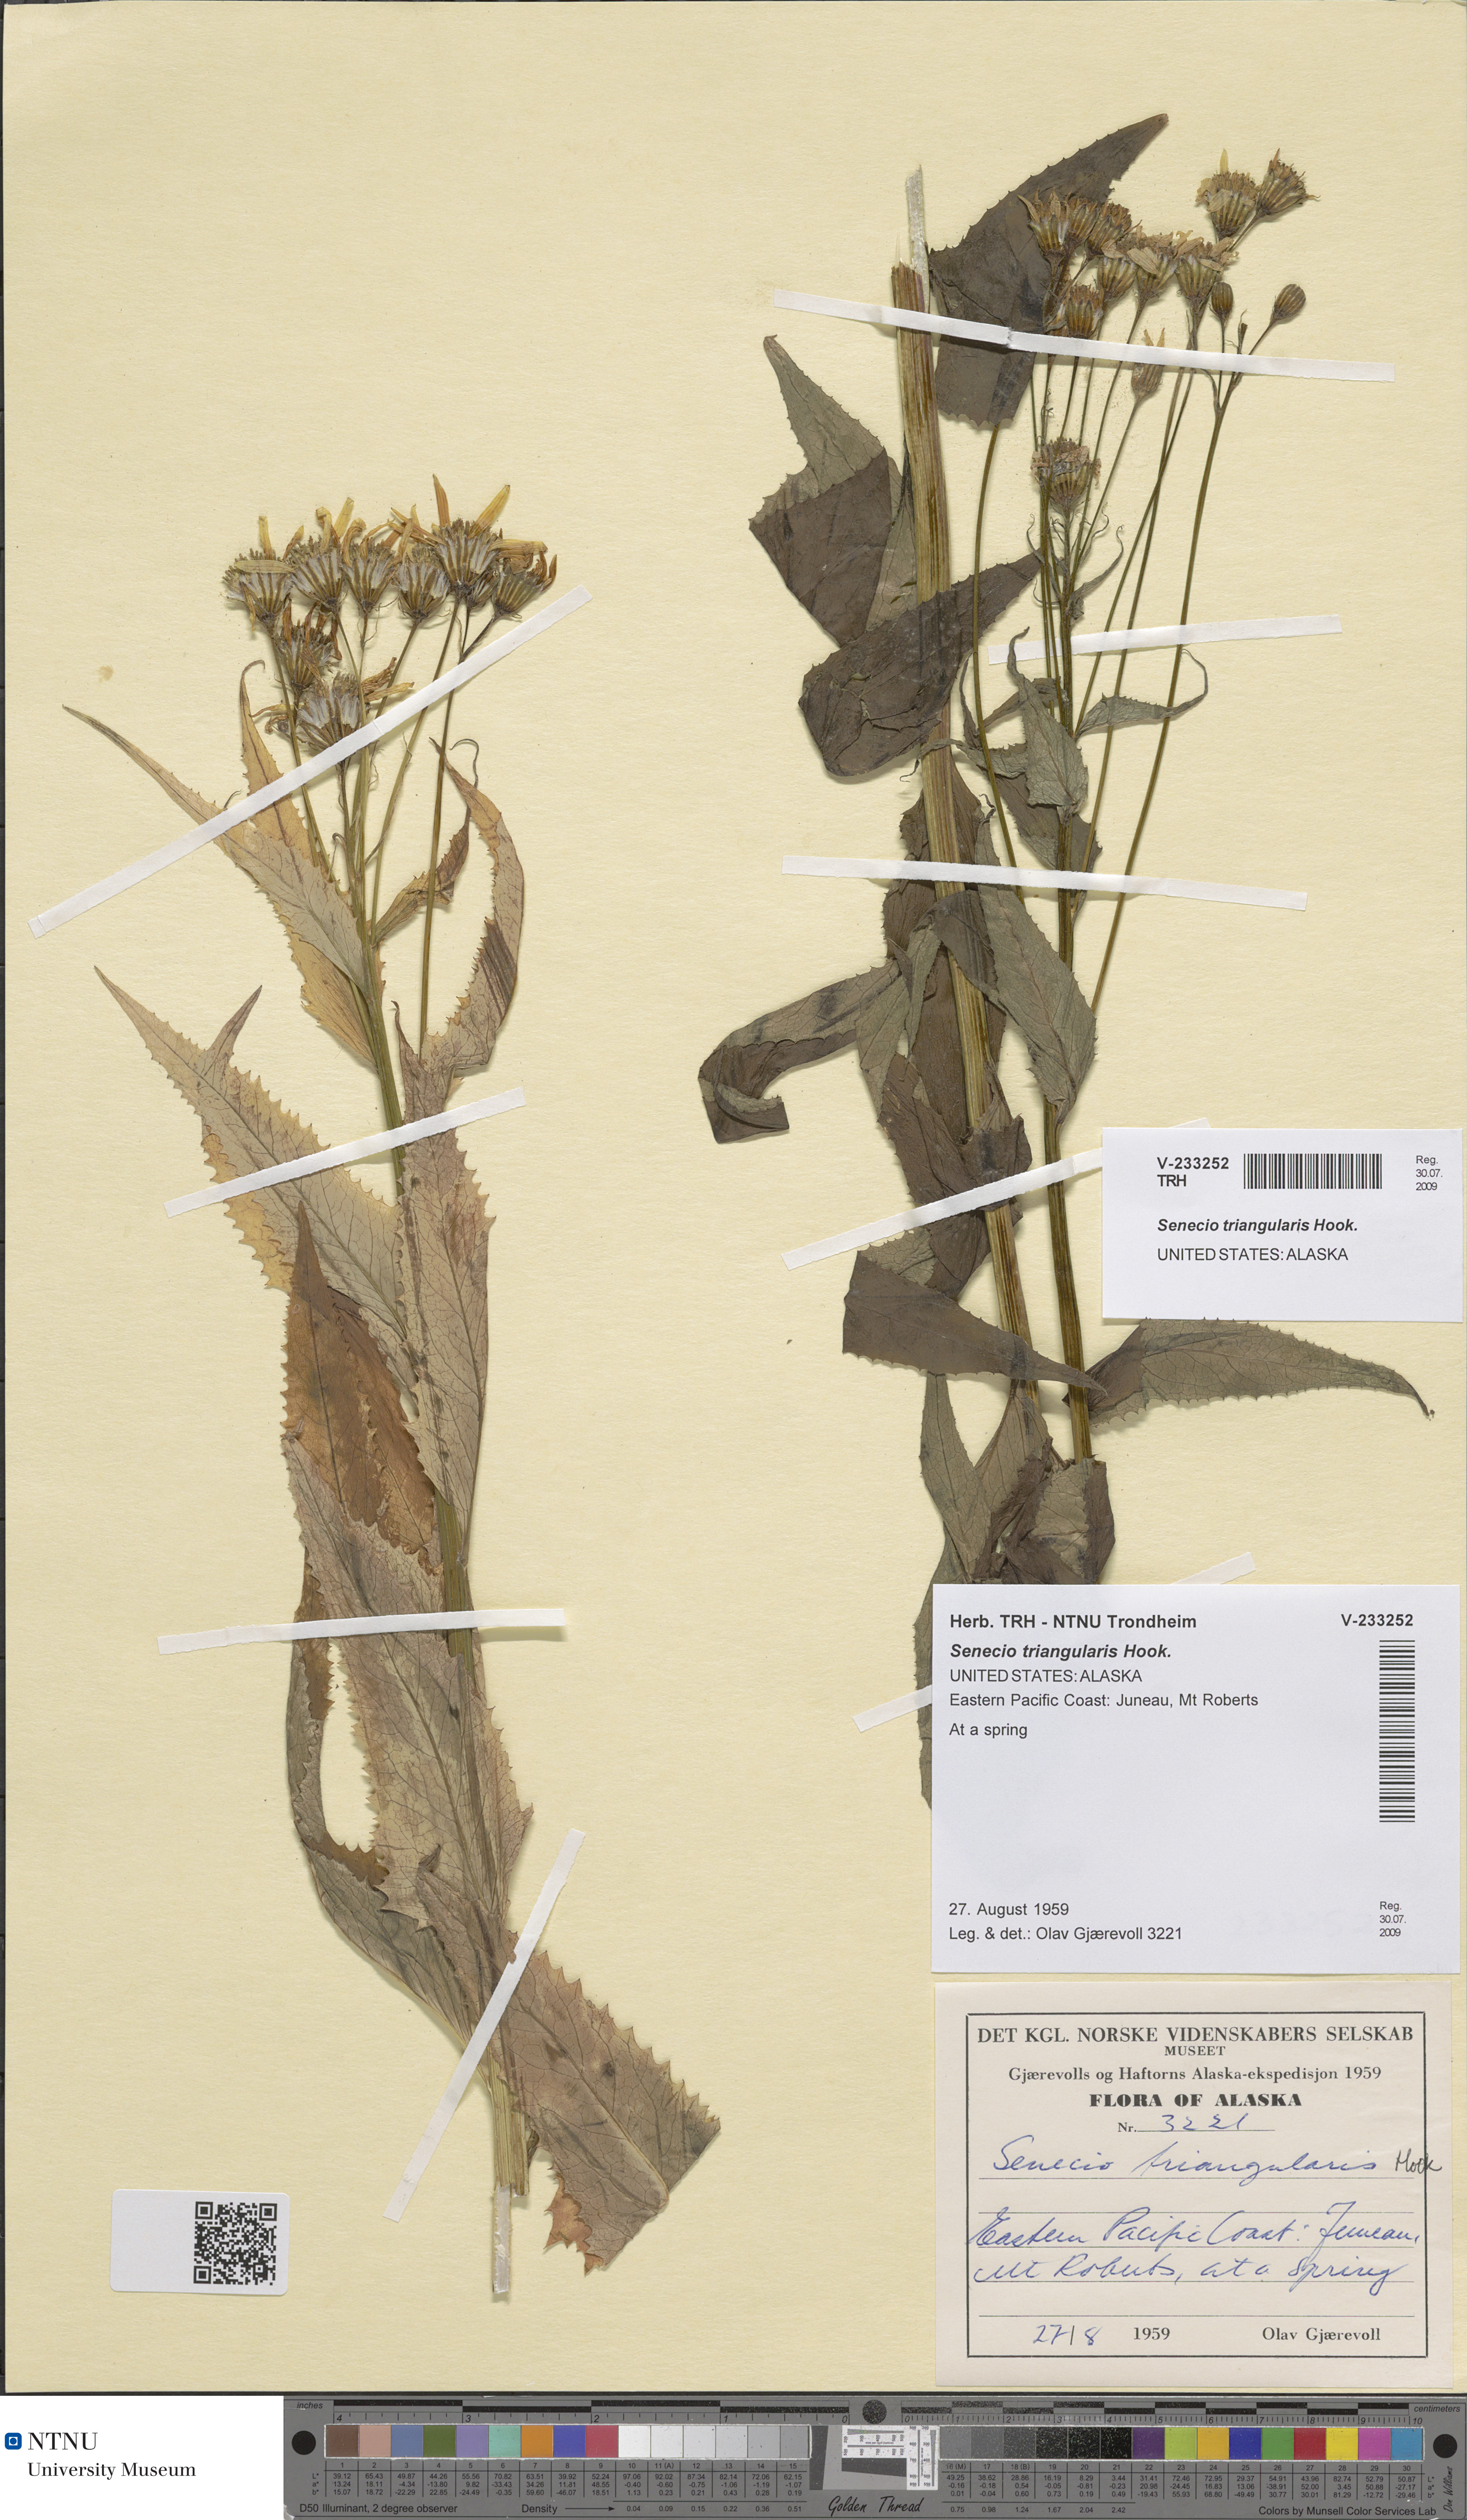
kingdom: Plantae
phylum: Tracheophyta
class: Magnoliopsida
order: Asterales
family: Asteraceae
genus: Senecio
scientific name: Senecio triangularis
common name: Arrowleaf butterweed
